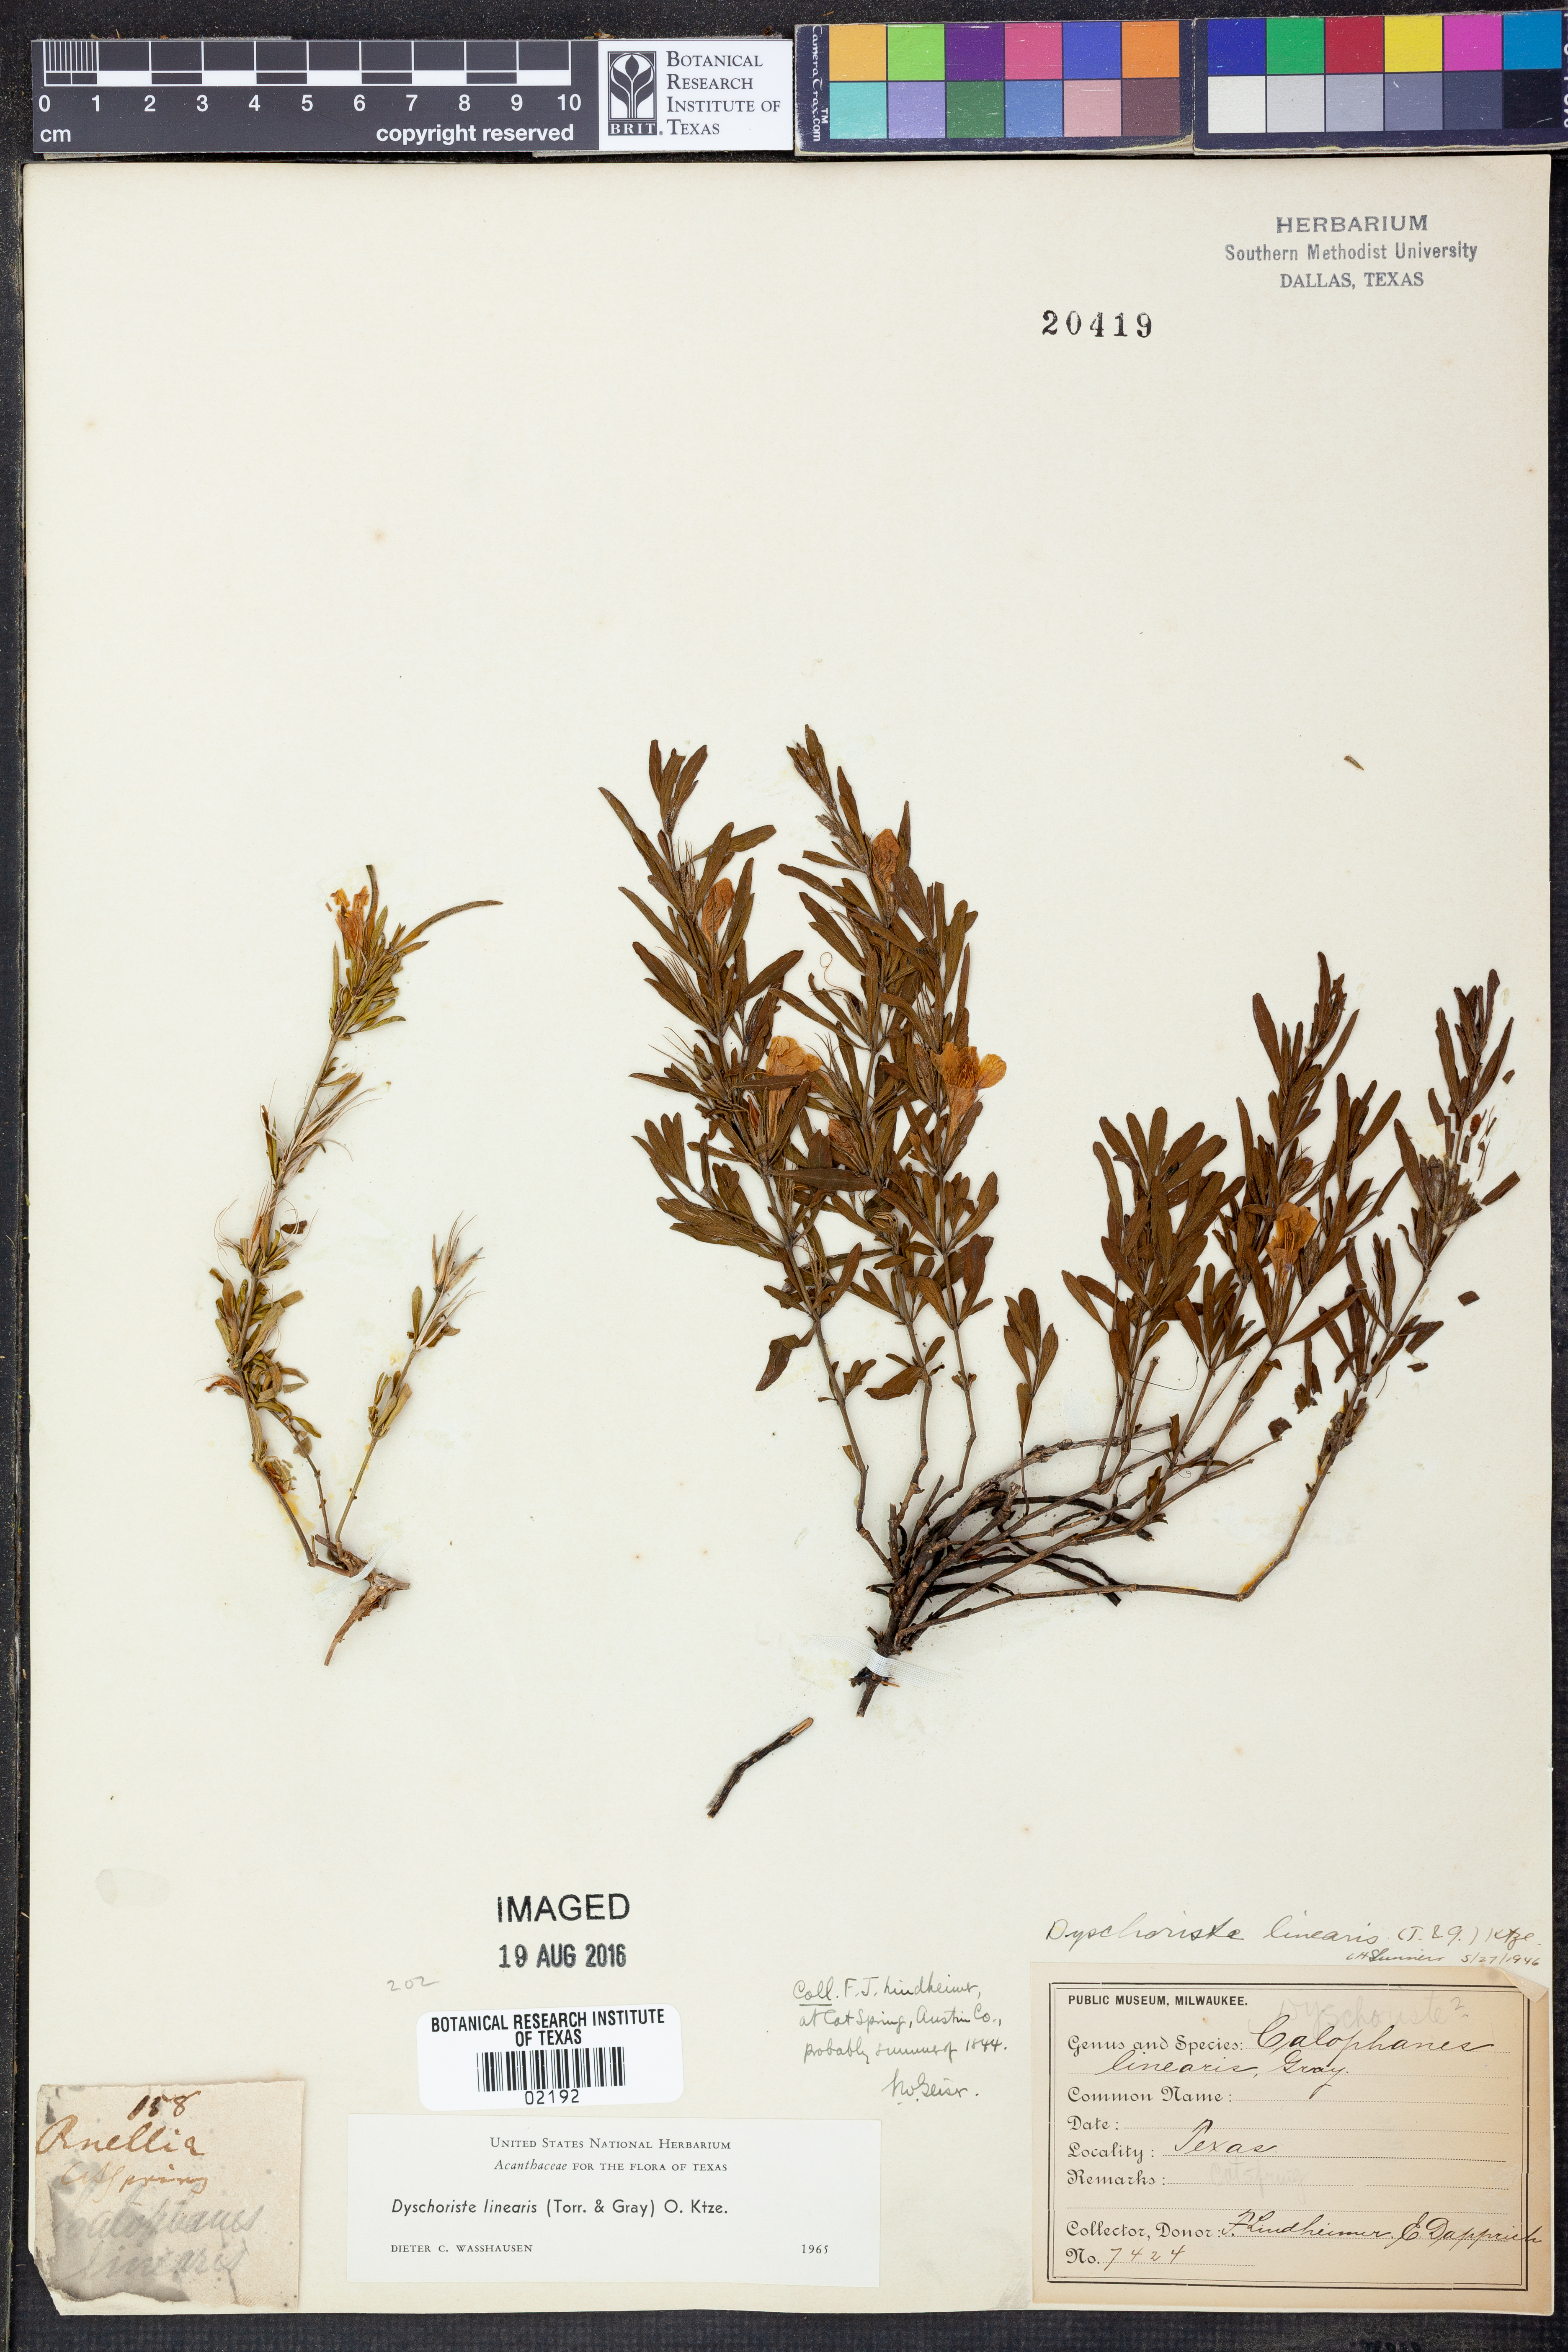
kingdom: Plantae
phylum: Tracheophyta
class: Magnoliopsida
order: Lamiales
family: Acanthaceae
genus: Dyschoriste
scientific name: Dyschoriste linearis
